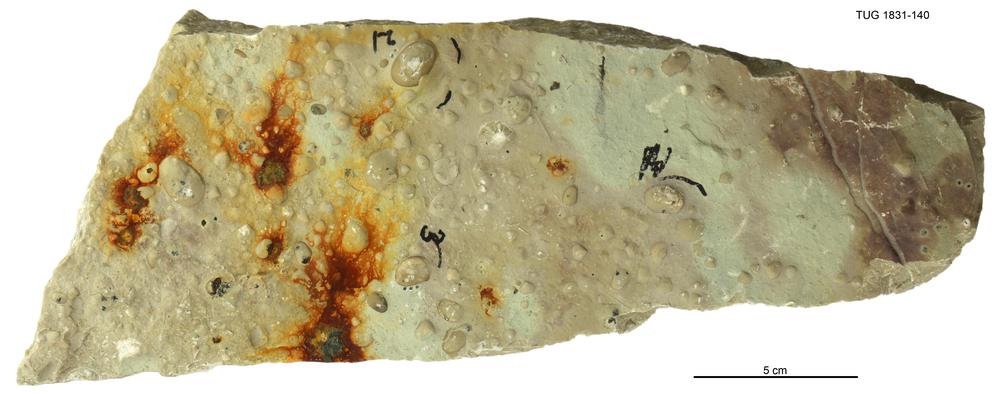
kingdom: Animalia
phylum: Arthropoda
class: Ostracoda
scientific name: Ostracoda
